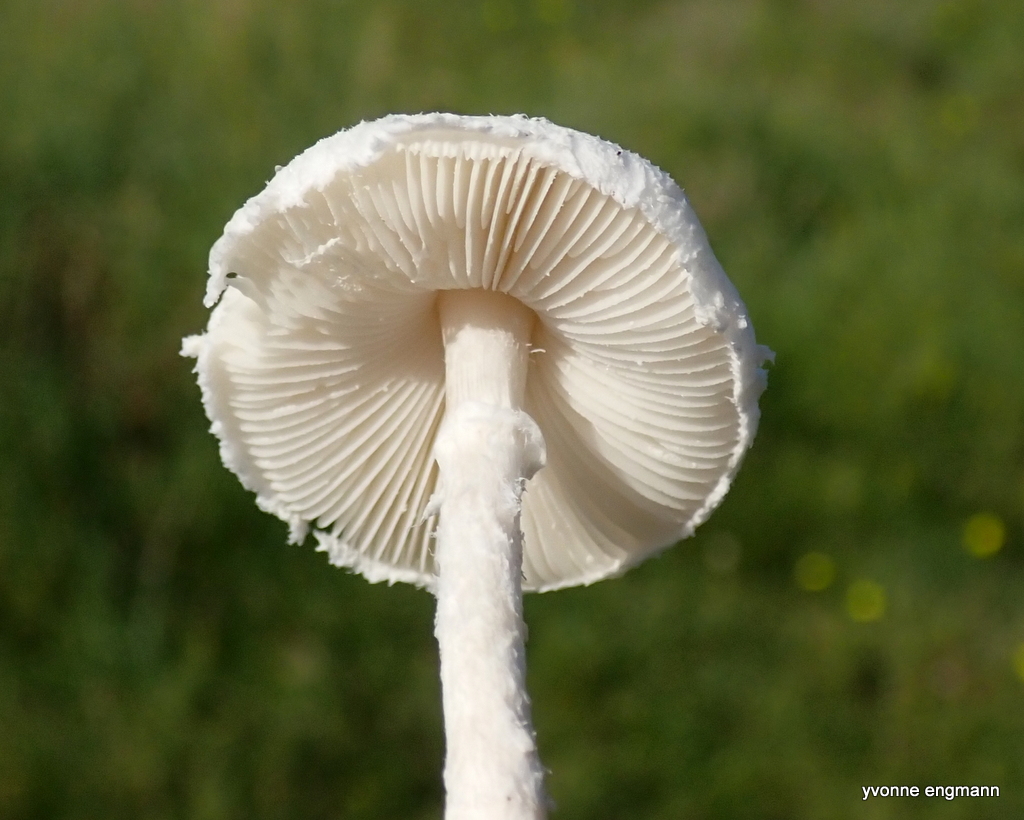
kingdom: Fungi
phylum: Basidiomycota
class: Agaricomycetes
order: Agaricales
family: Agaricaceae
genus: Lepiota
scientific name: Lepiota erminea
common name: hvid parasolhat
